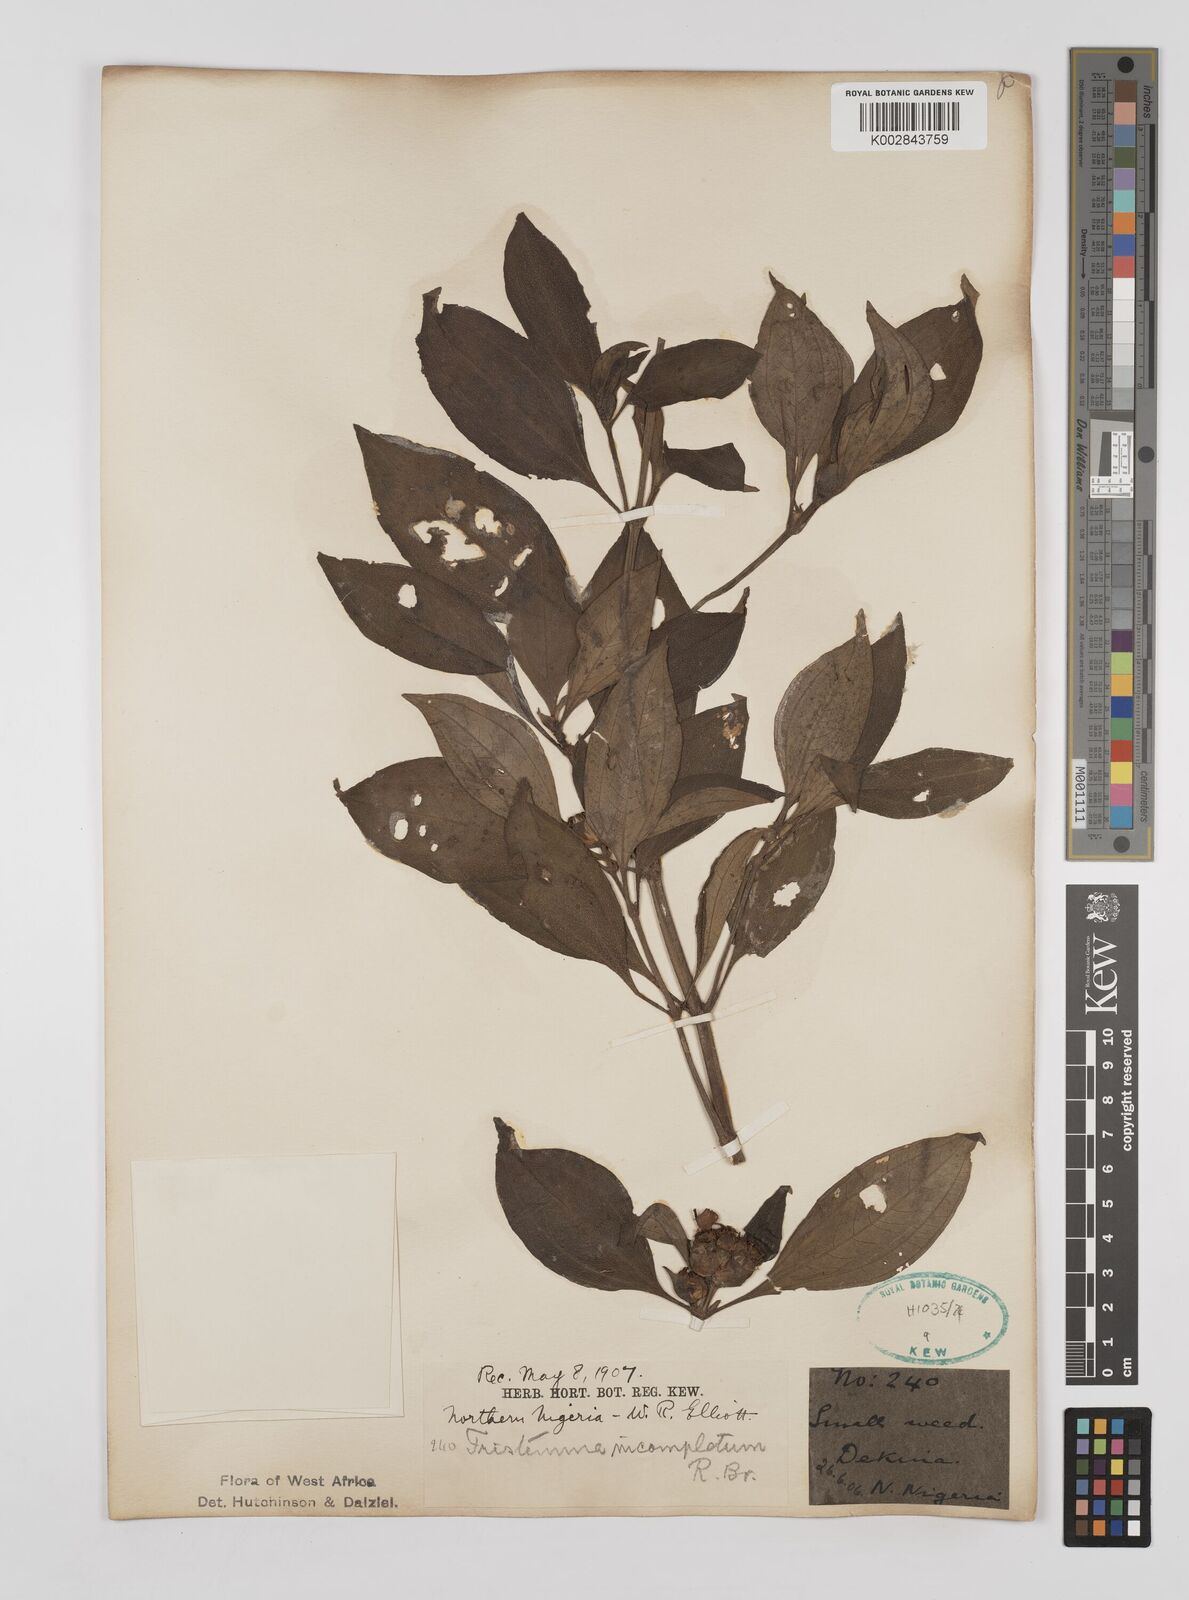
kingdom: Plantae
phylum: Tracheophyta
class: Magnoliopsida
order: Myrtales
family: Melastomataceae
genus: Tristemma
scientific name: Tristemma mauritianum
